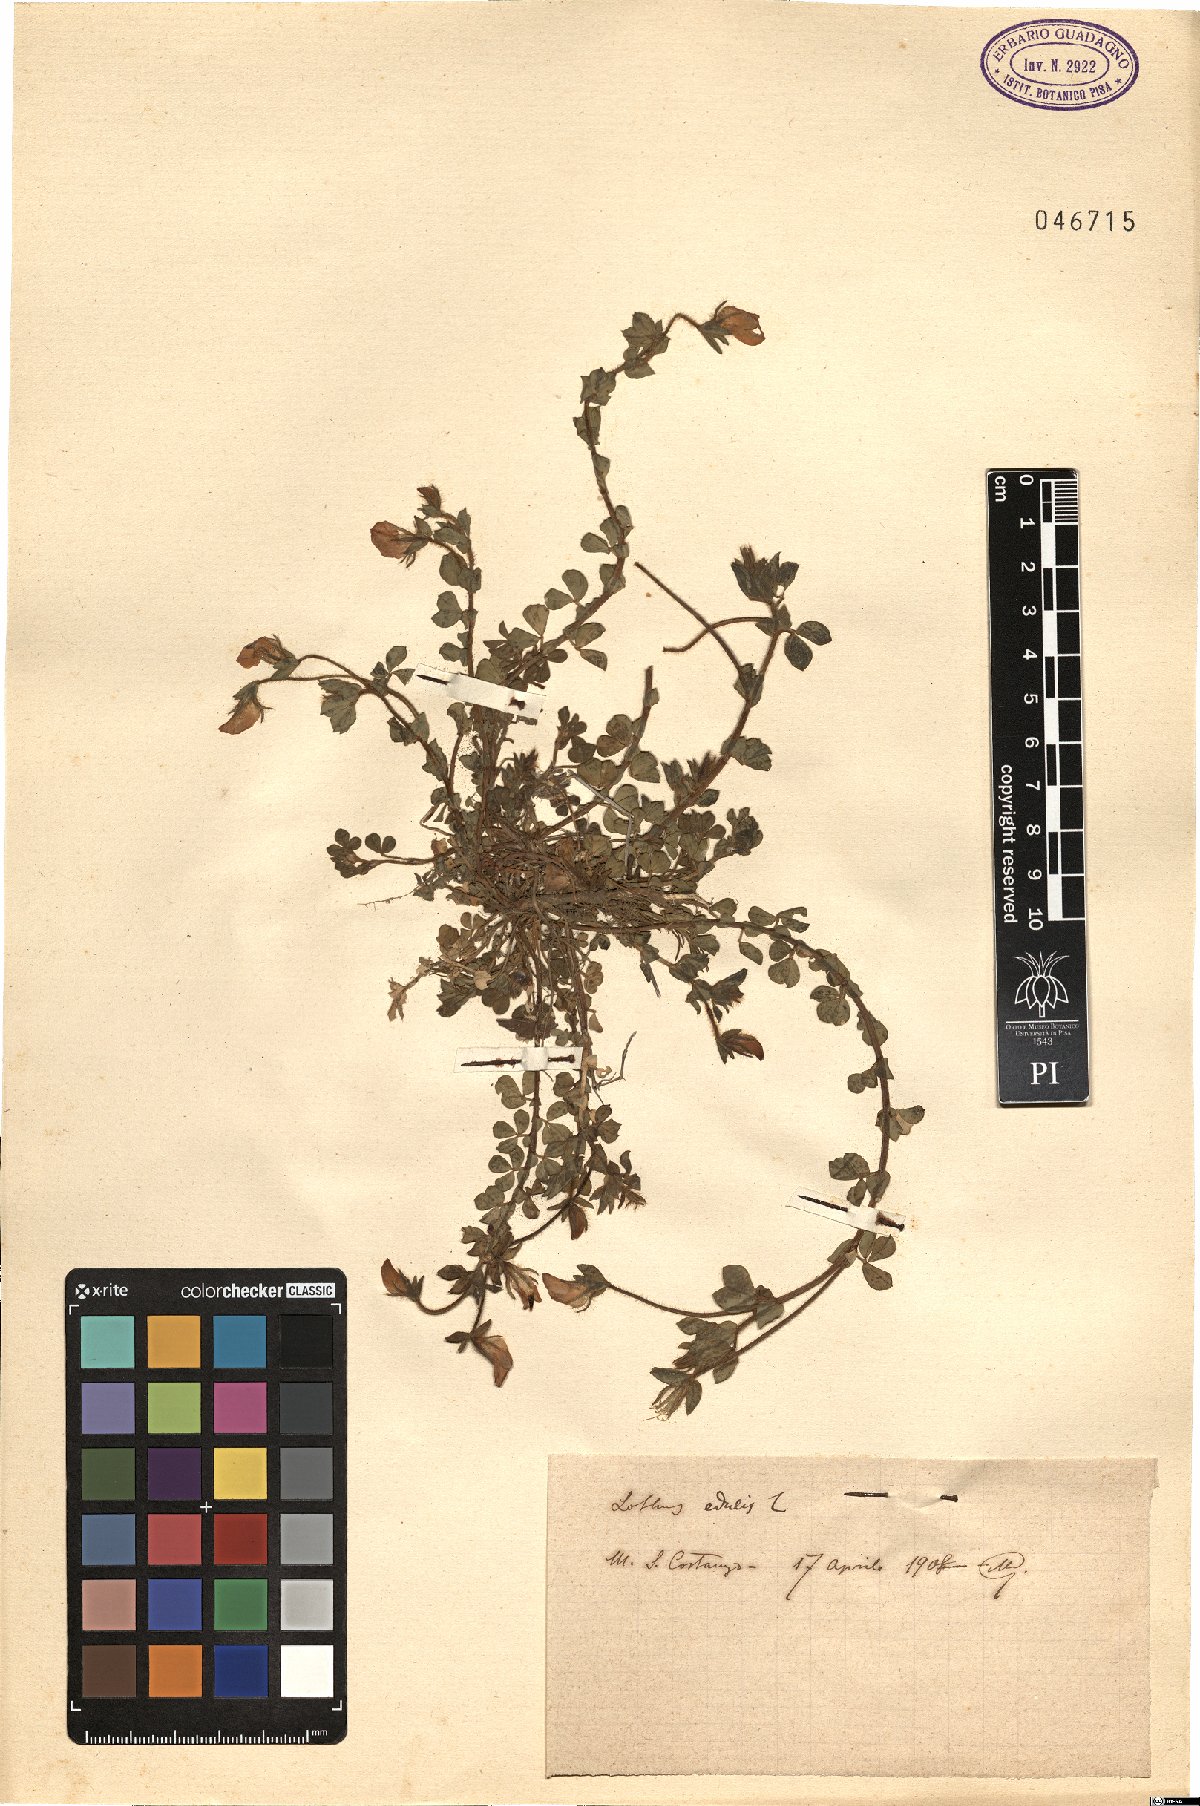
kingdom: Plantae
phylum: Tracheophyta
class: Magnoliopsida
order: Fabales
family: Fabaceae
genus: Lotus
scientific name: Lotus edulis
